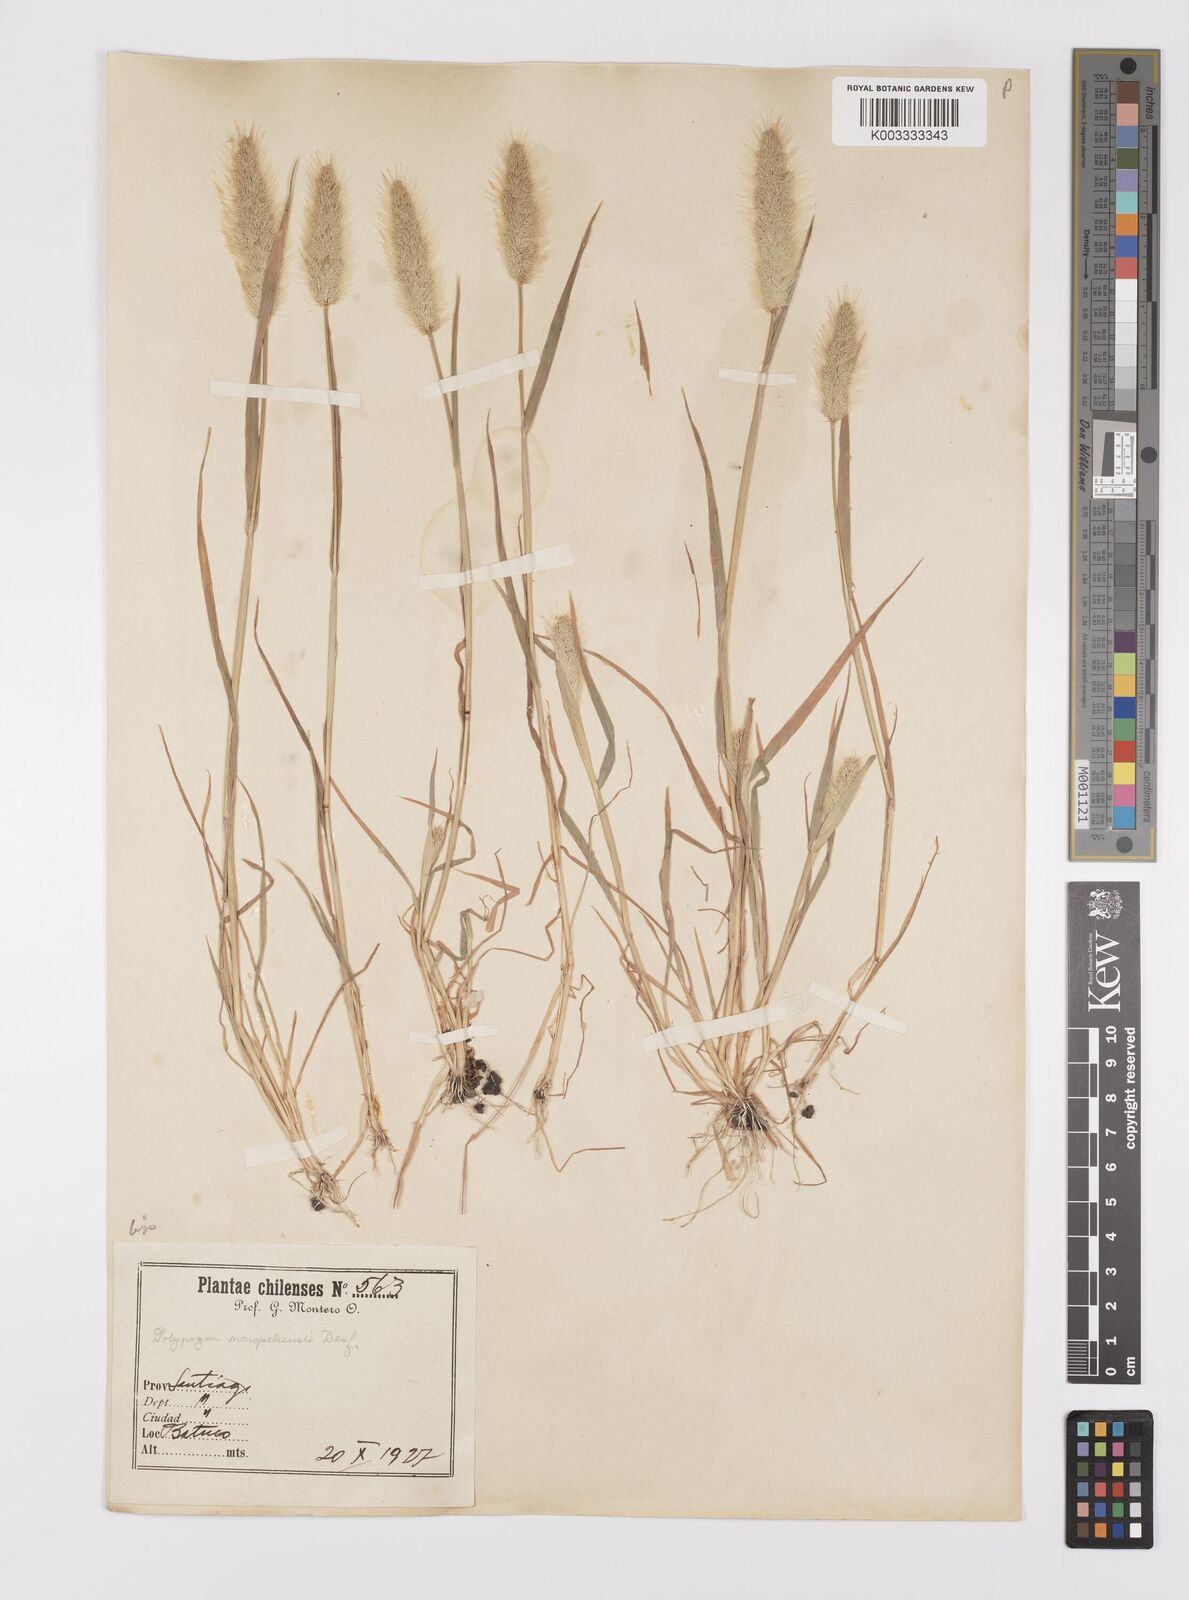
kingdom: Plantae
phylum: Tracheophyta
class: Liliopsida
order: Poales
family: Poaceae
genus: Polypogon
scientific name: Polypogon monspeliensis
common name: Annual rabbitsfoot grass
